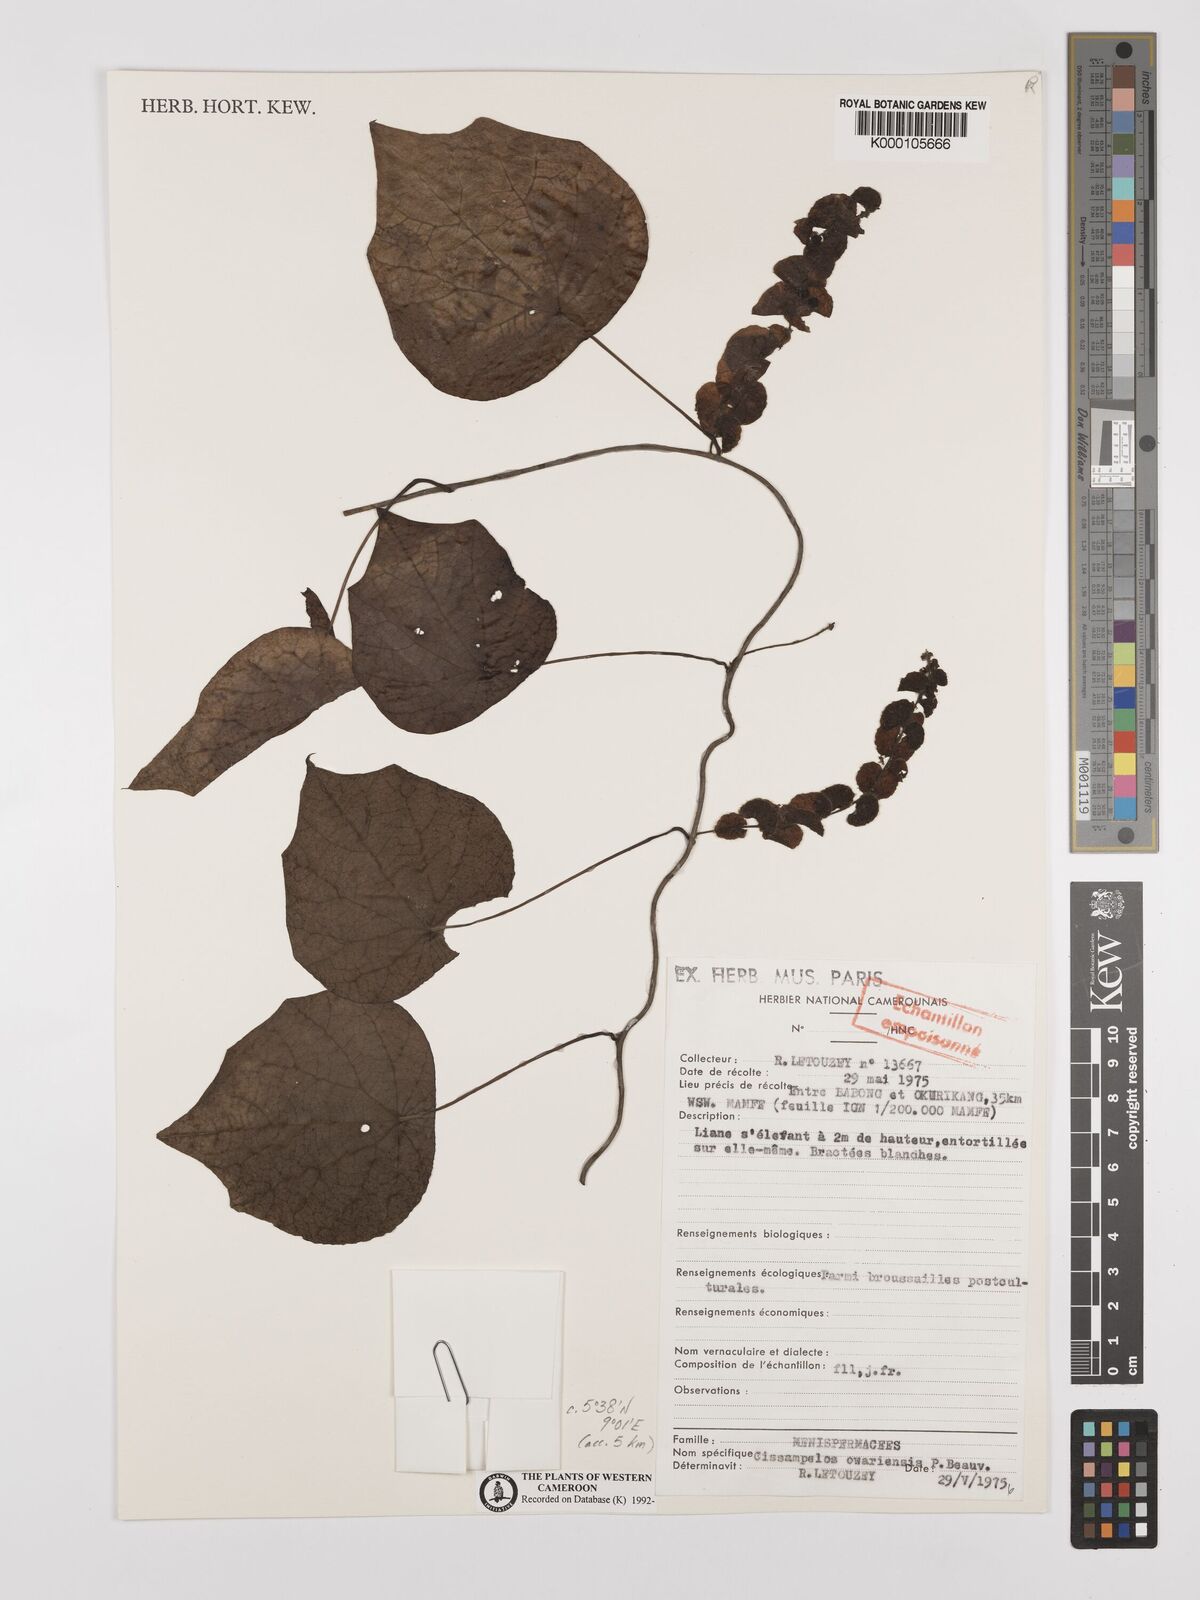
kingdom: Plantae
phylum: Tracheophyta
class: Magnoliopsida
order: Ranunculales
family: Menispermaceae
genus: Cissampelos
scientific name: Cissampelos owariensis
